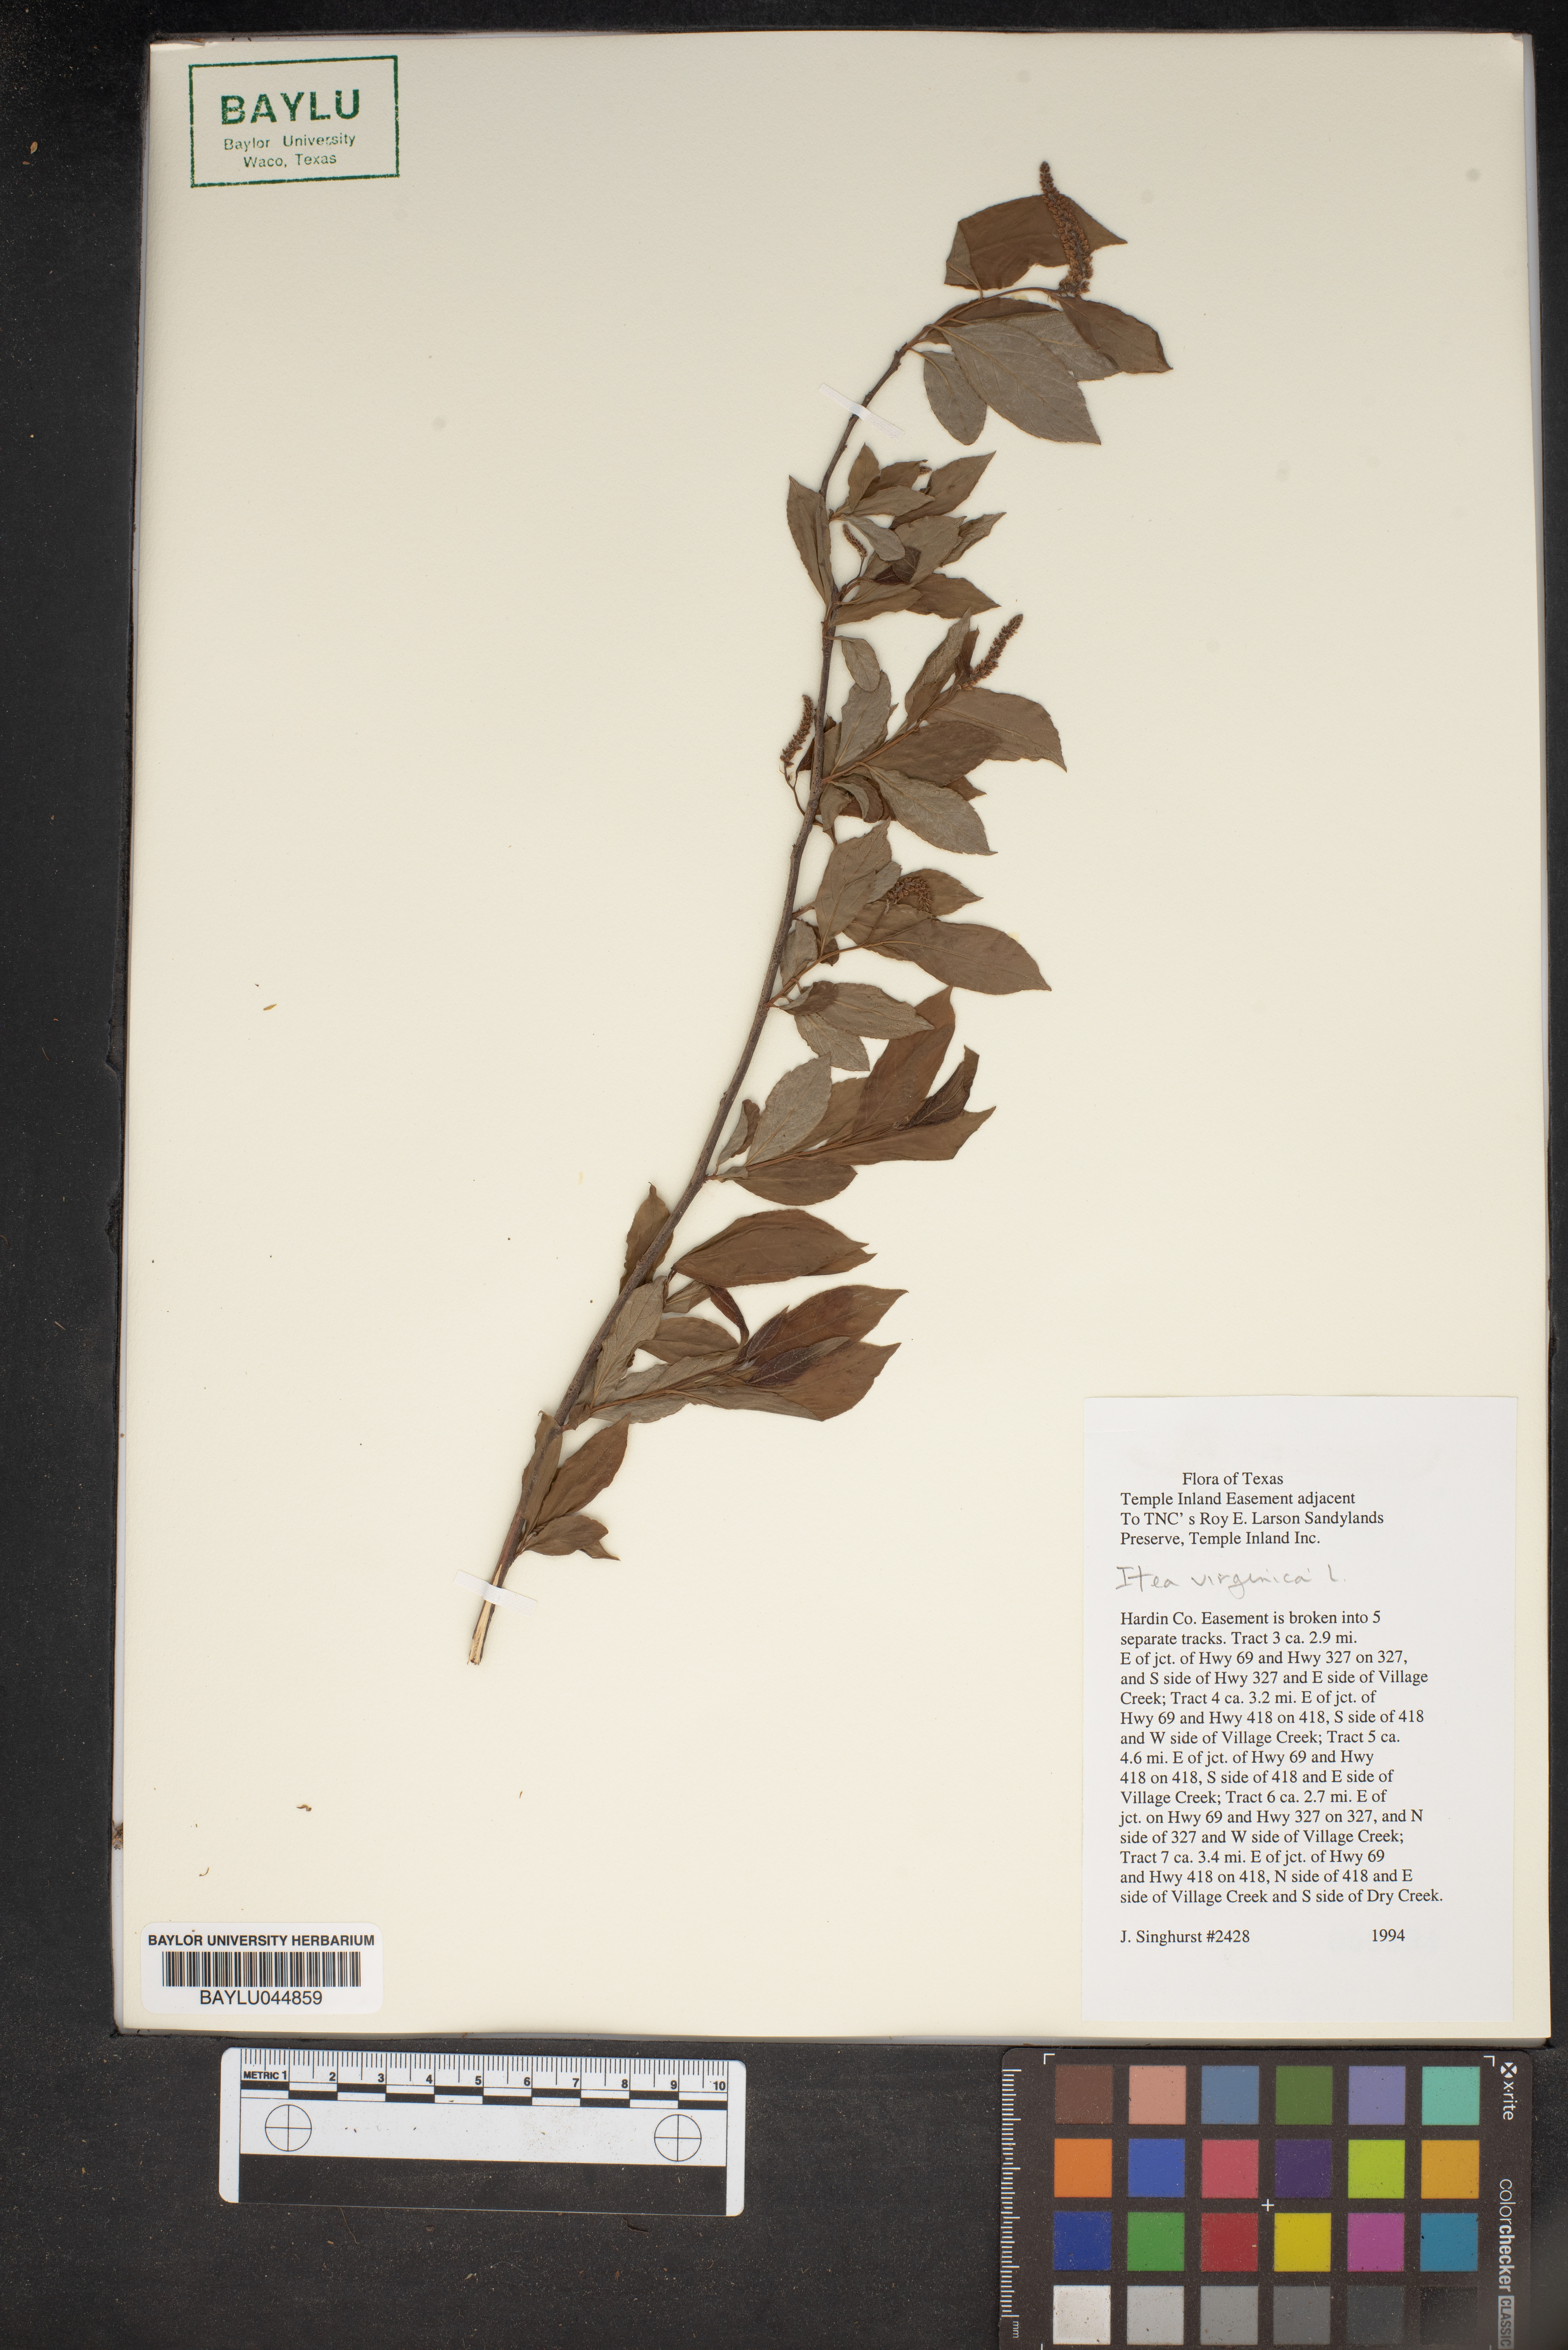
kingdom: Plantae
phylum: Tracheophyta
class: Magnoliopsida
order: Saxifragales
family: Iteaceae
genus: Itea
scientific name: Itea virginica
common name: Sweetspire
